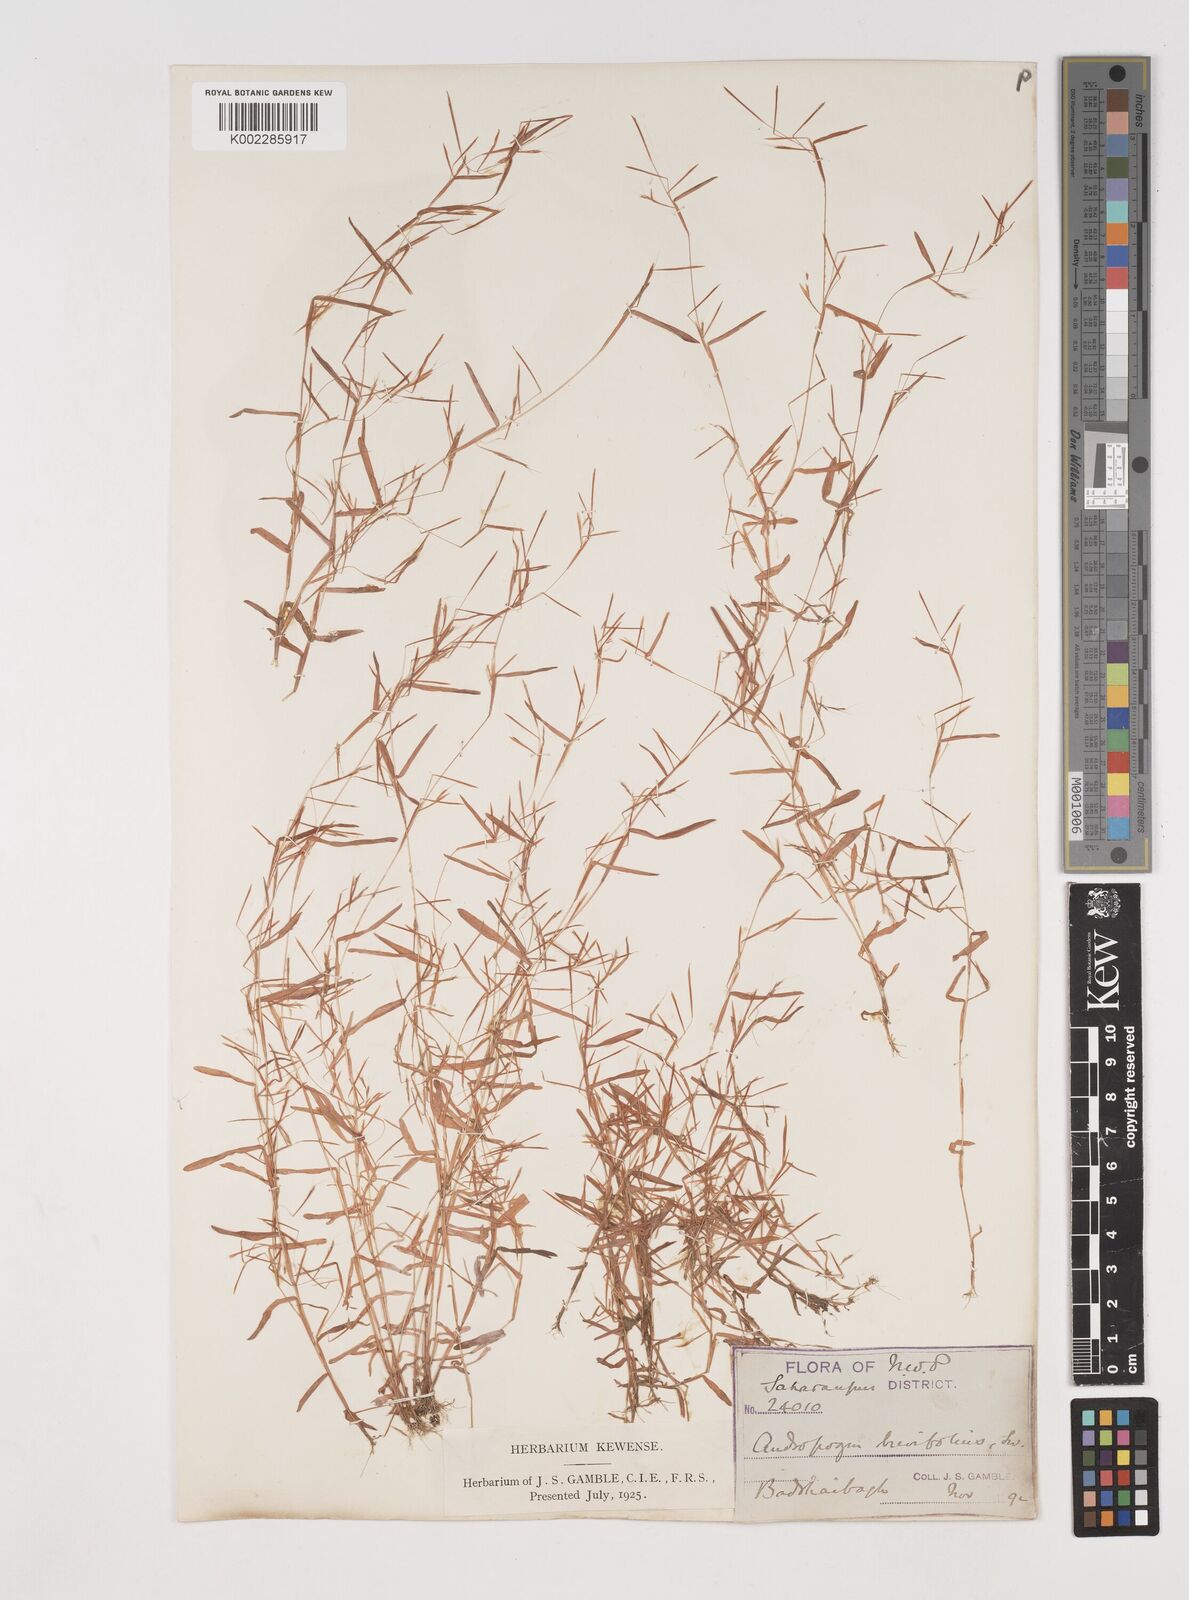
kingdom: Plantae
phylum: Tracheophyta
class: Liliopsida
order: Poales
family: Poaceae
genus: Schizachyrium
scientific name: Schizachyrium brevifolium
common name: Serillo dulce
